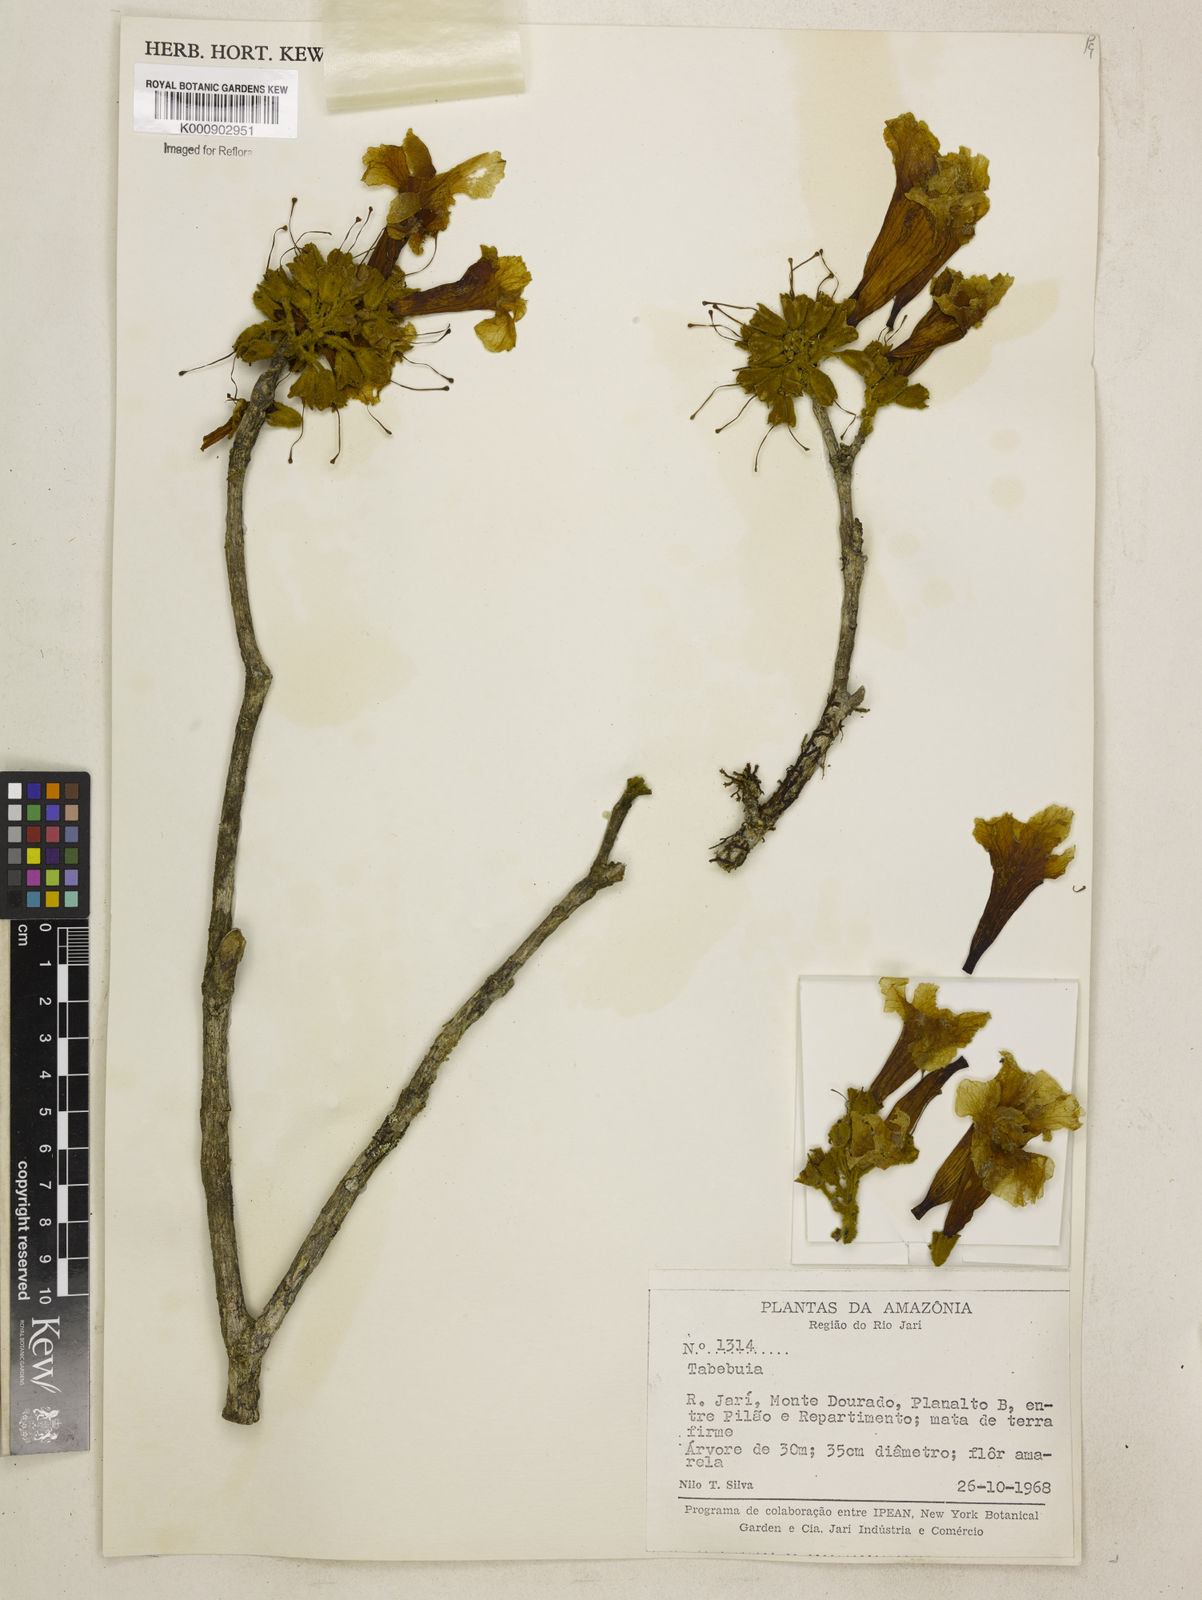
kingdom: Plantae
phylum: Tracheophyta
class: Magnoliopsida
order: Lamiales
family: Bignoniaceae
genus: Handroanthus
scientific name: Handroanthus ochraceus
